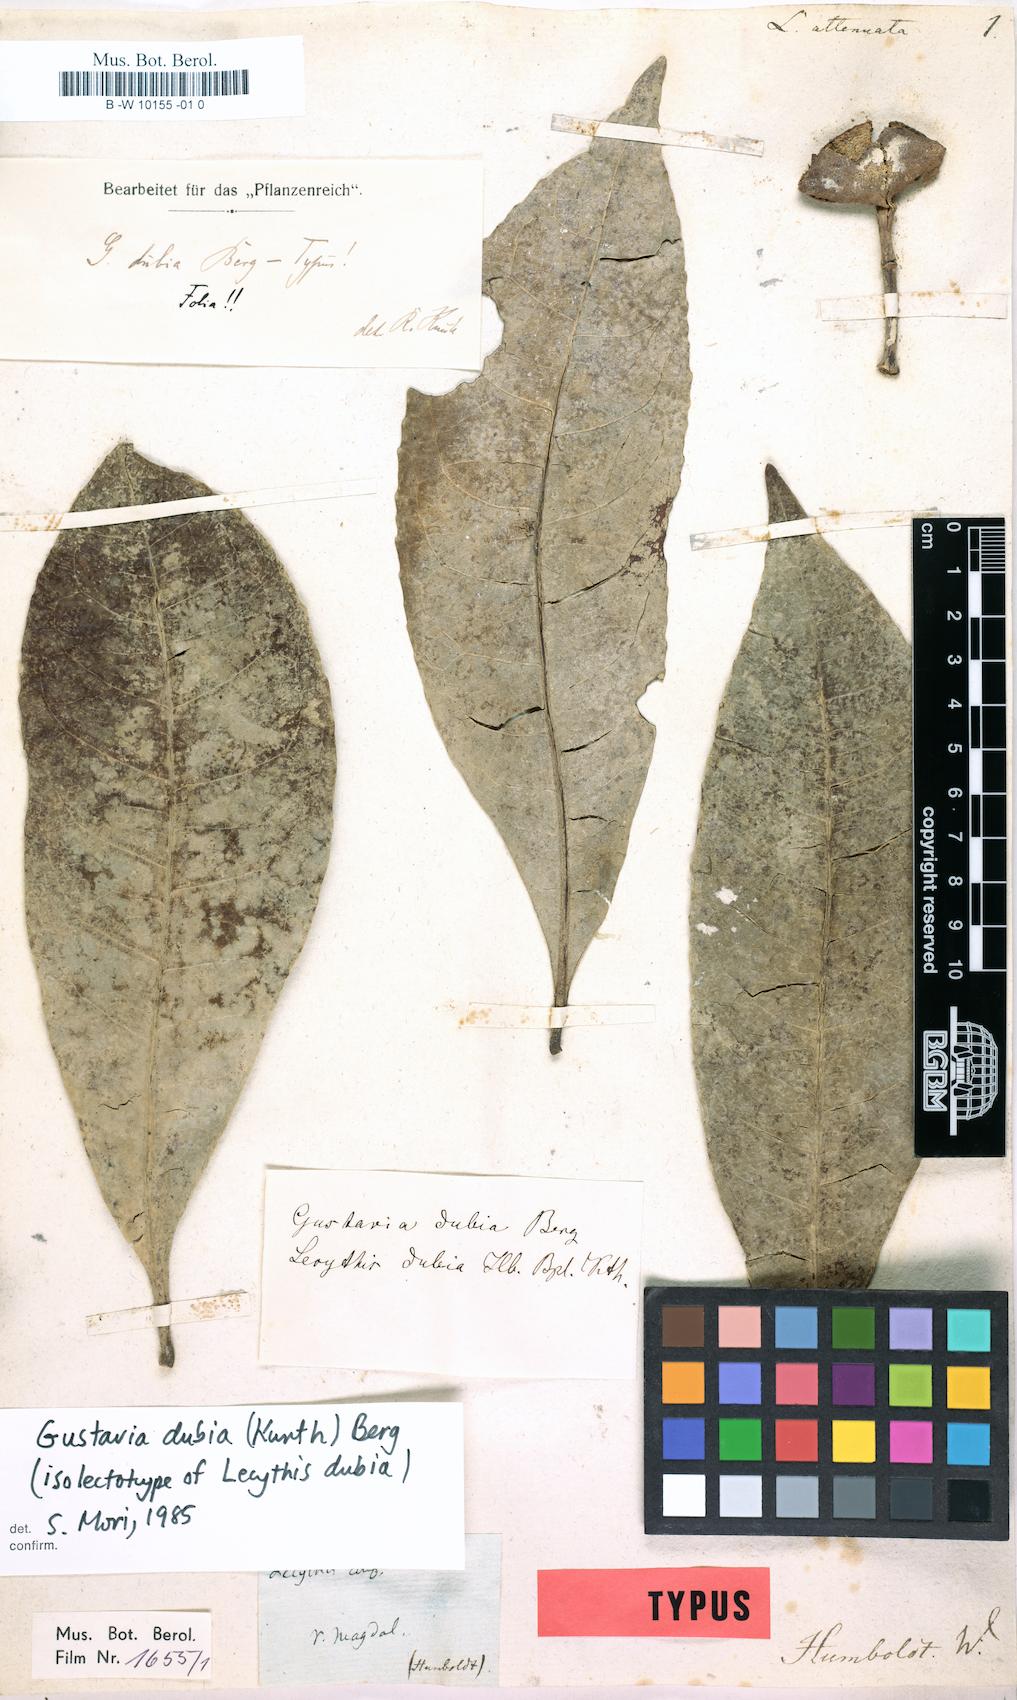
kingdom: Plantae
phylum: Tracheophyta
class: Magnoliopsida
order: Ericales
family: Lecythidaceae
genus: Gustavia
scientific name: Gustavia dubia
